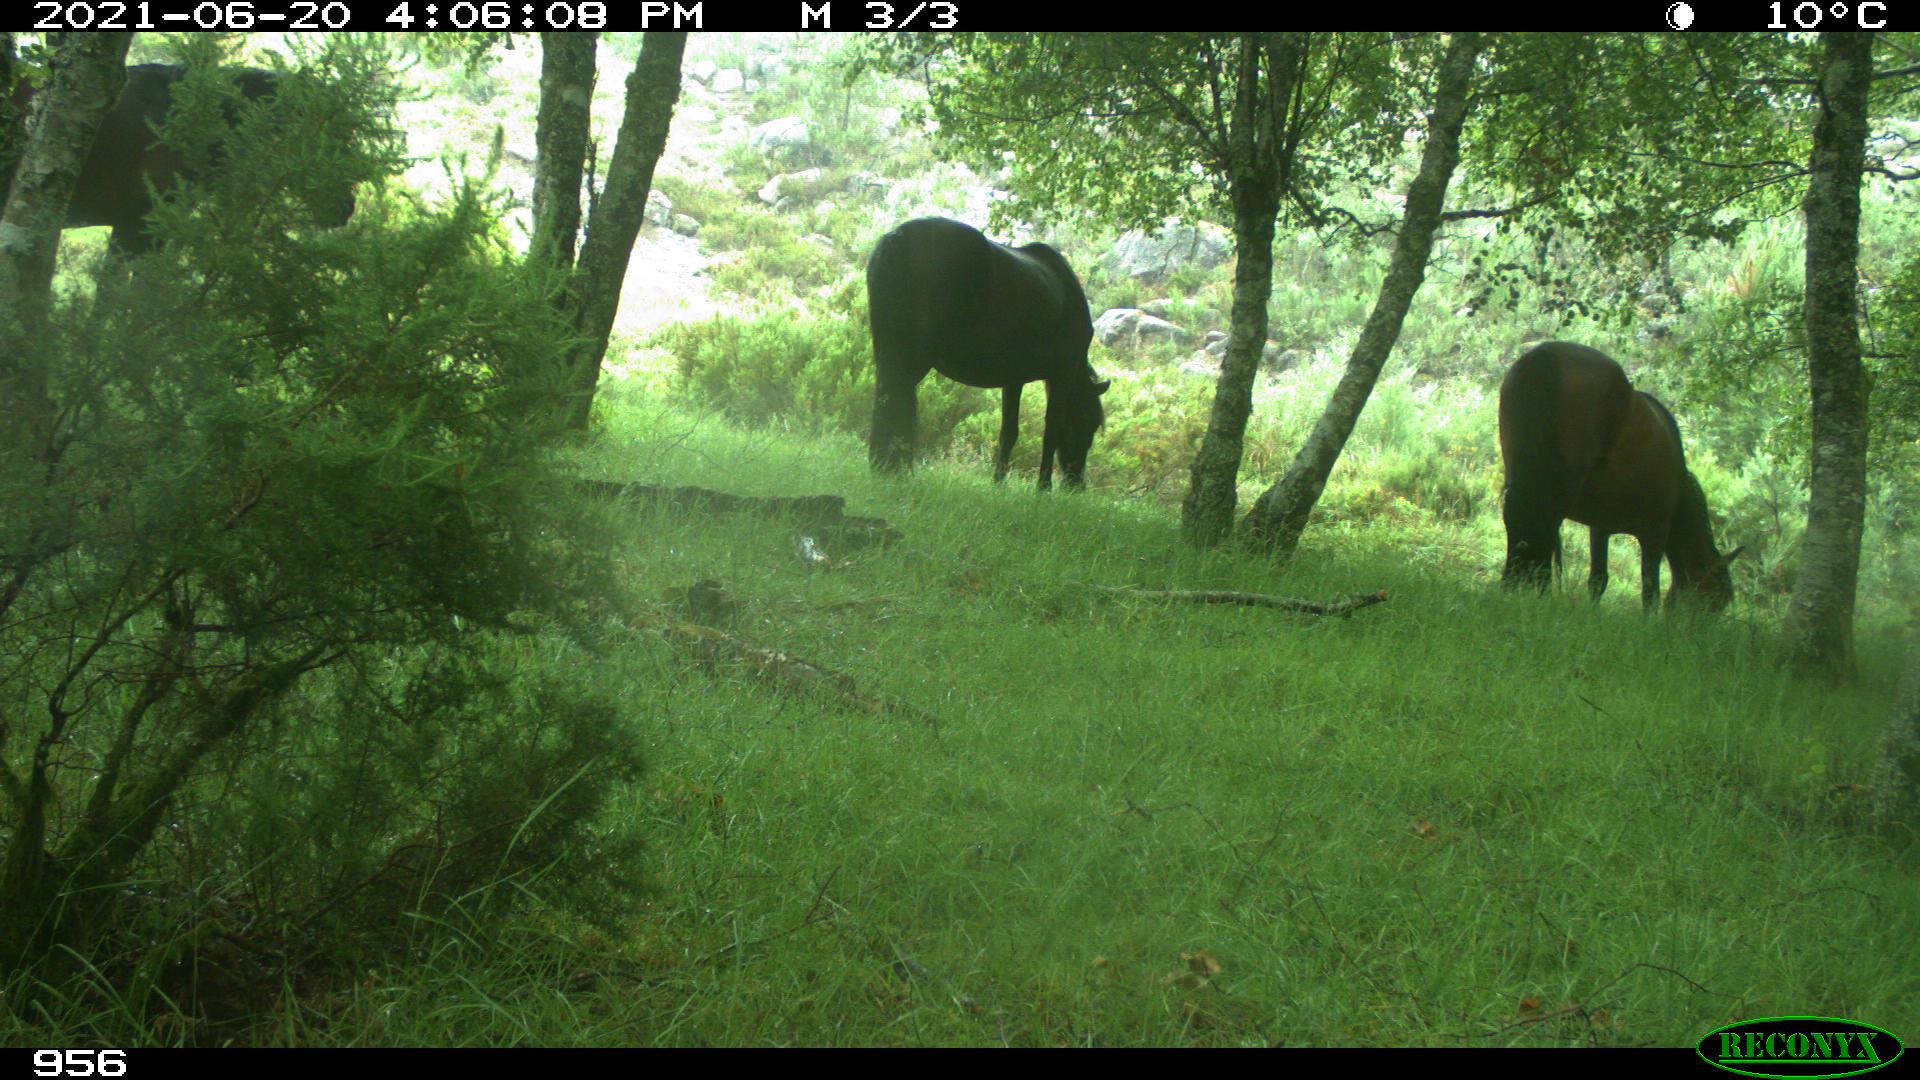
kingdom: Animalia
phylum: Chordata
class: Mammalia
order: Perissodactyla
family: Equidae
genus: Equus
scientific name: Equus caballus
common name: Horse
